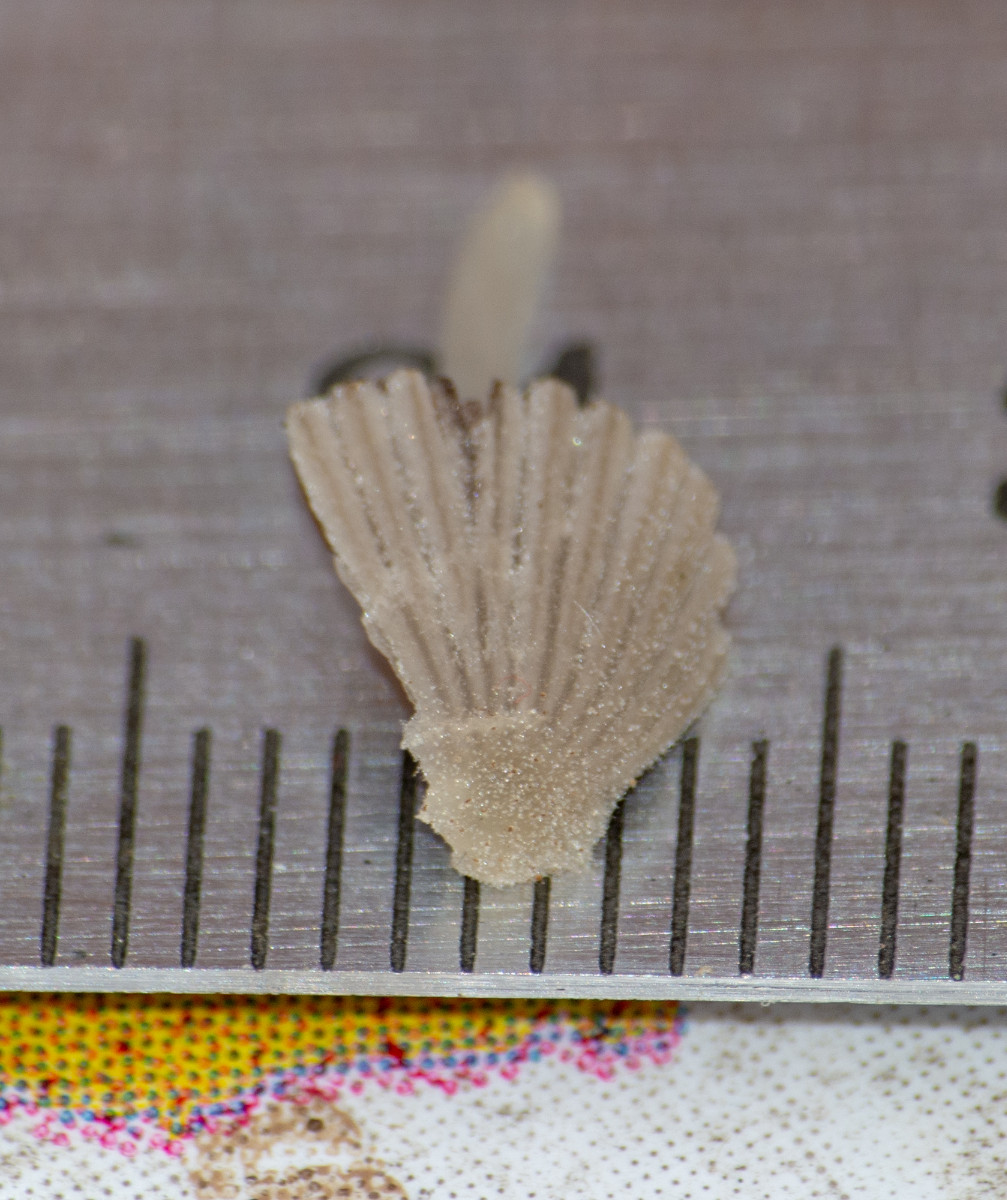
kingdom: Fungi
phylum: Basidiomycota
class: Agaricomycetes
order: Agaricales
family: Psathyrellaceae
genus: Coprinellus
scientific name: Coprinellus disseminatus
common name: bredsået blækhat
